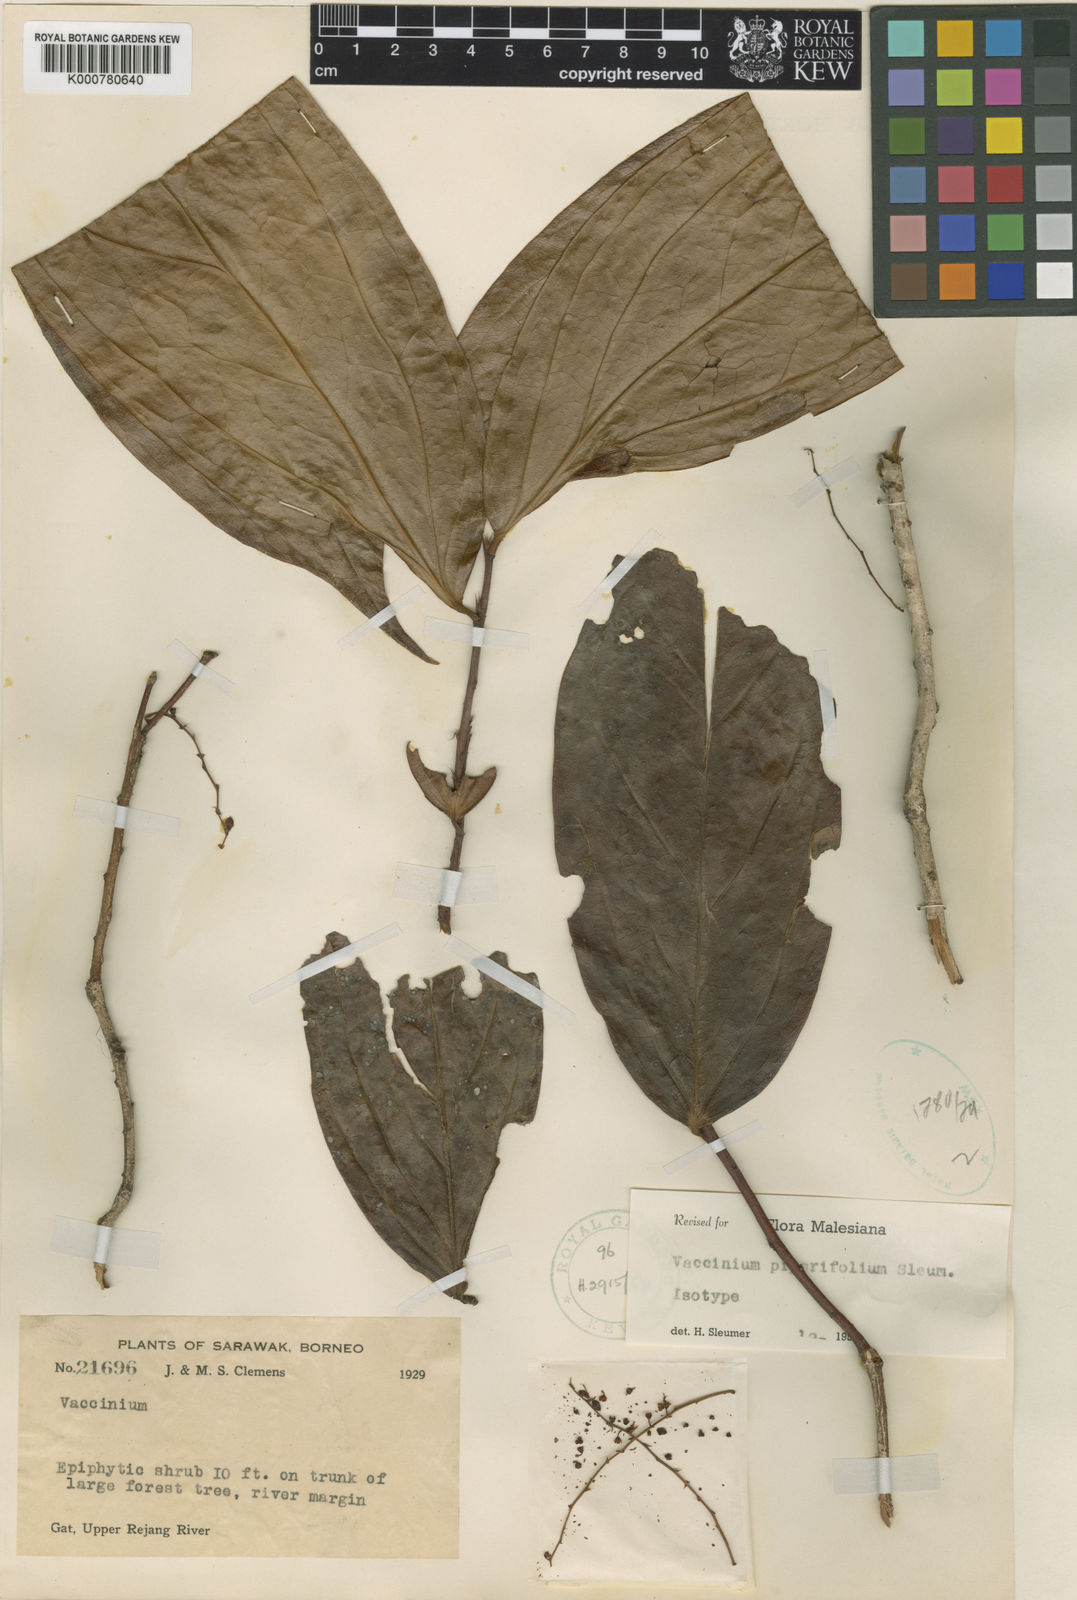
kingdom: Plantae
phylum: Tracheophyta
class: Magnoliopsida
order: Ericales
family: Ericaceae
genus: Rigiolepis
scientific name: Rigiolepis piperifolia
